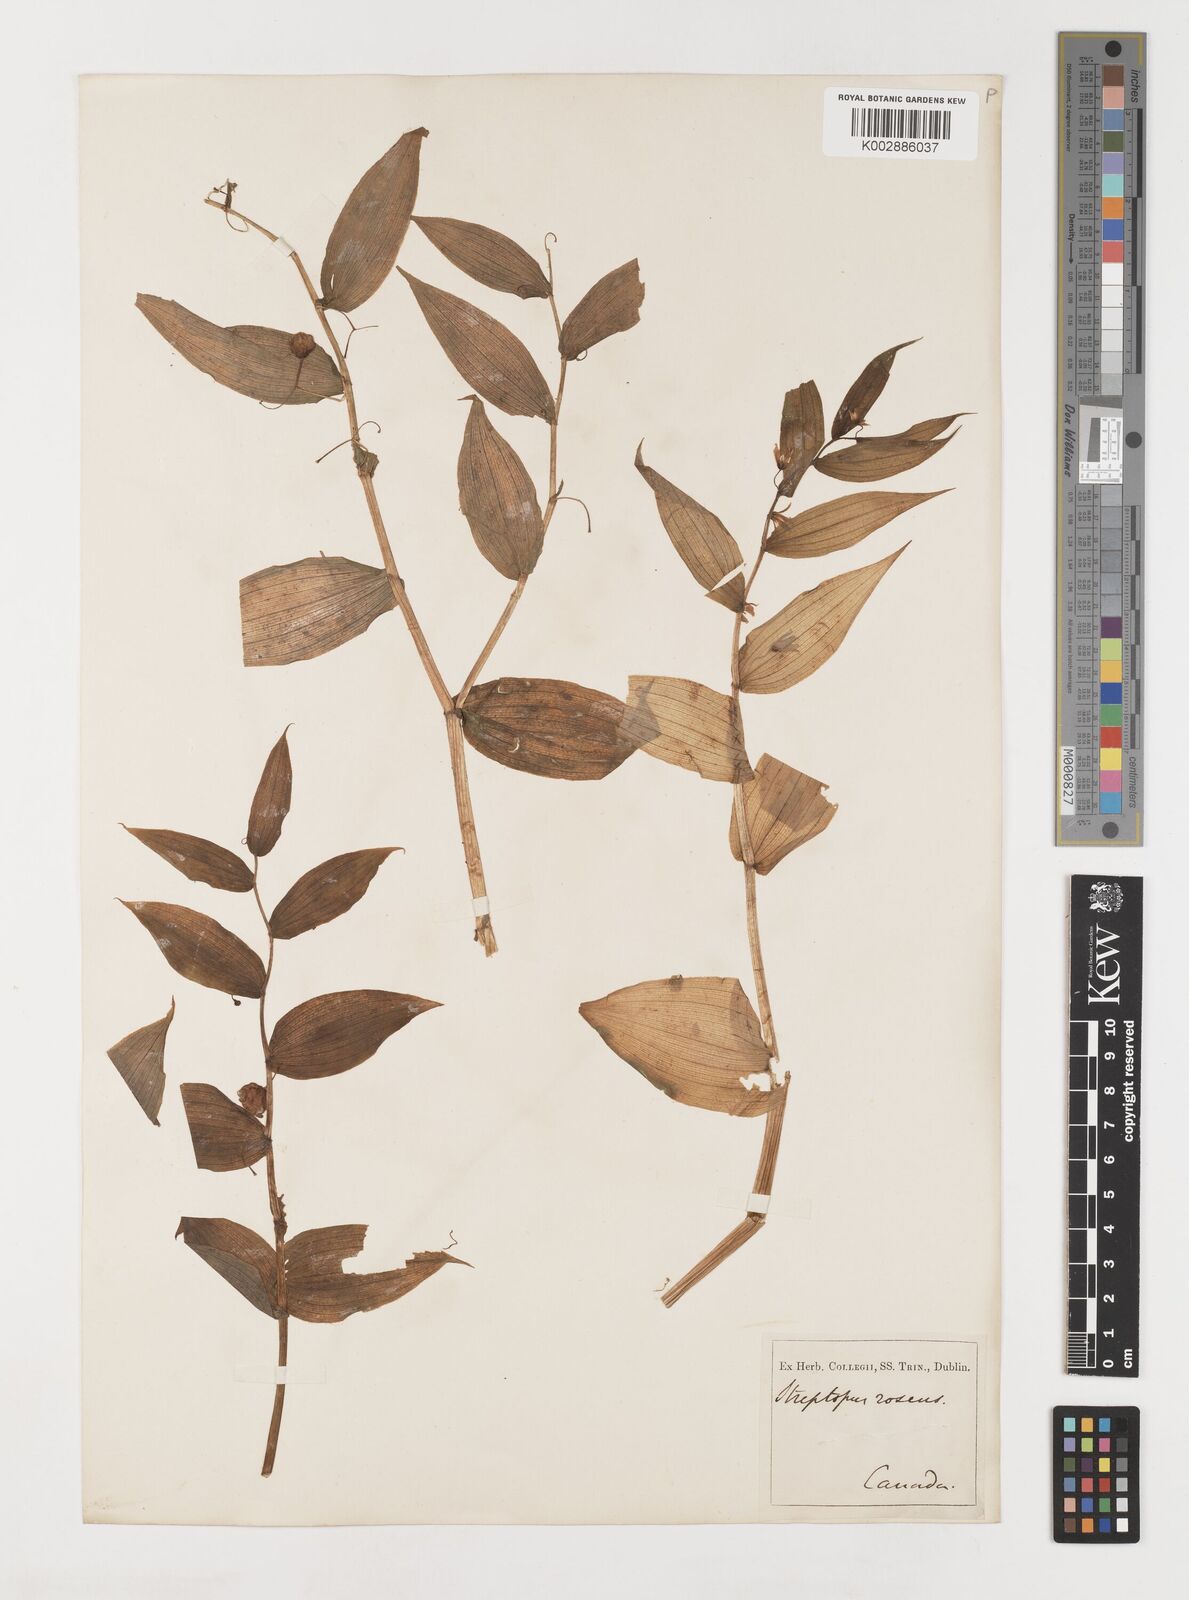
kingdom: Plantae
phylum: Tracheophyta
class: Liliopsida
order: Liliales
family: Liliaceae
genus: Streptopus
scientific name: Streptopus lanceolatus
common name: Rose mandarin
